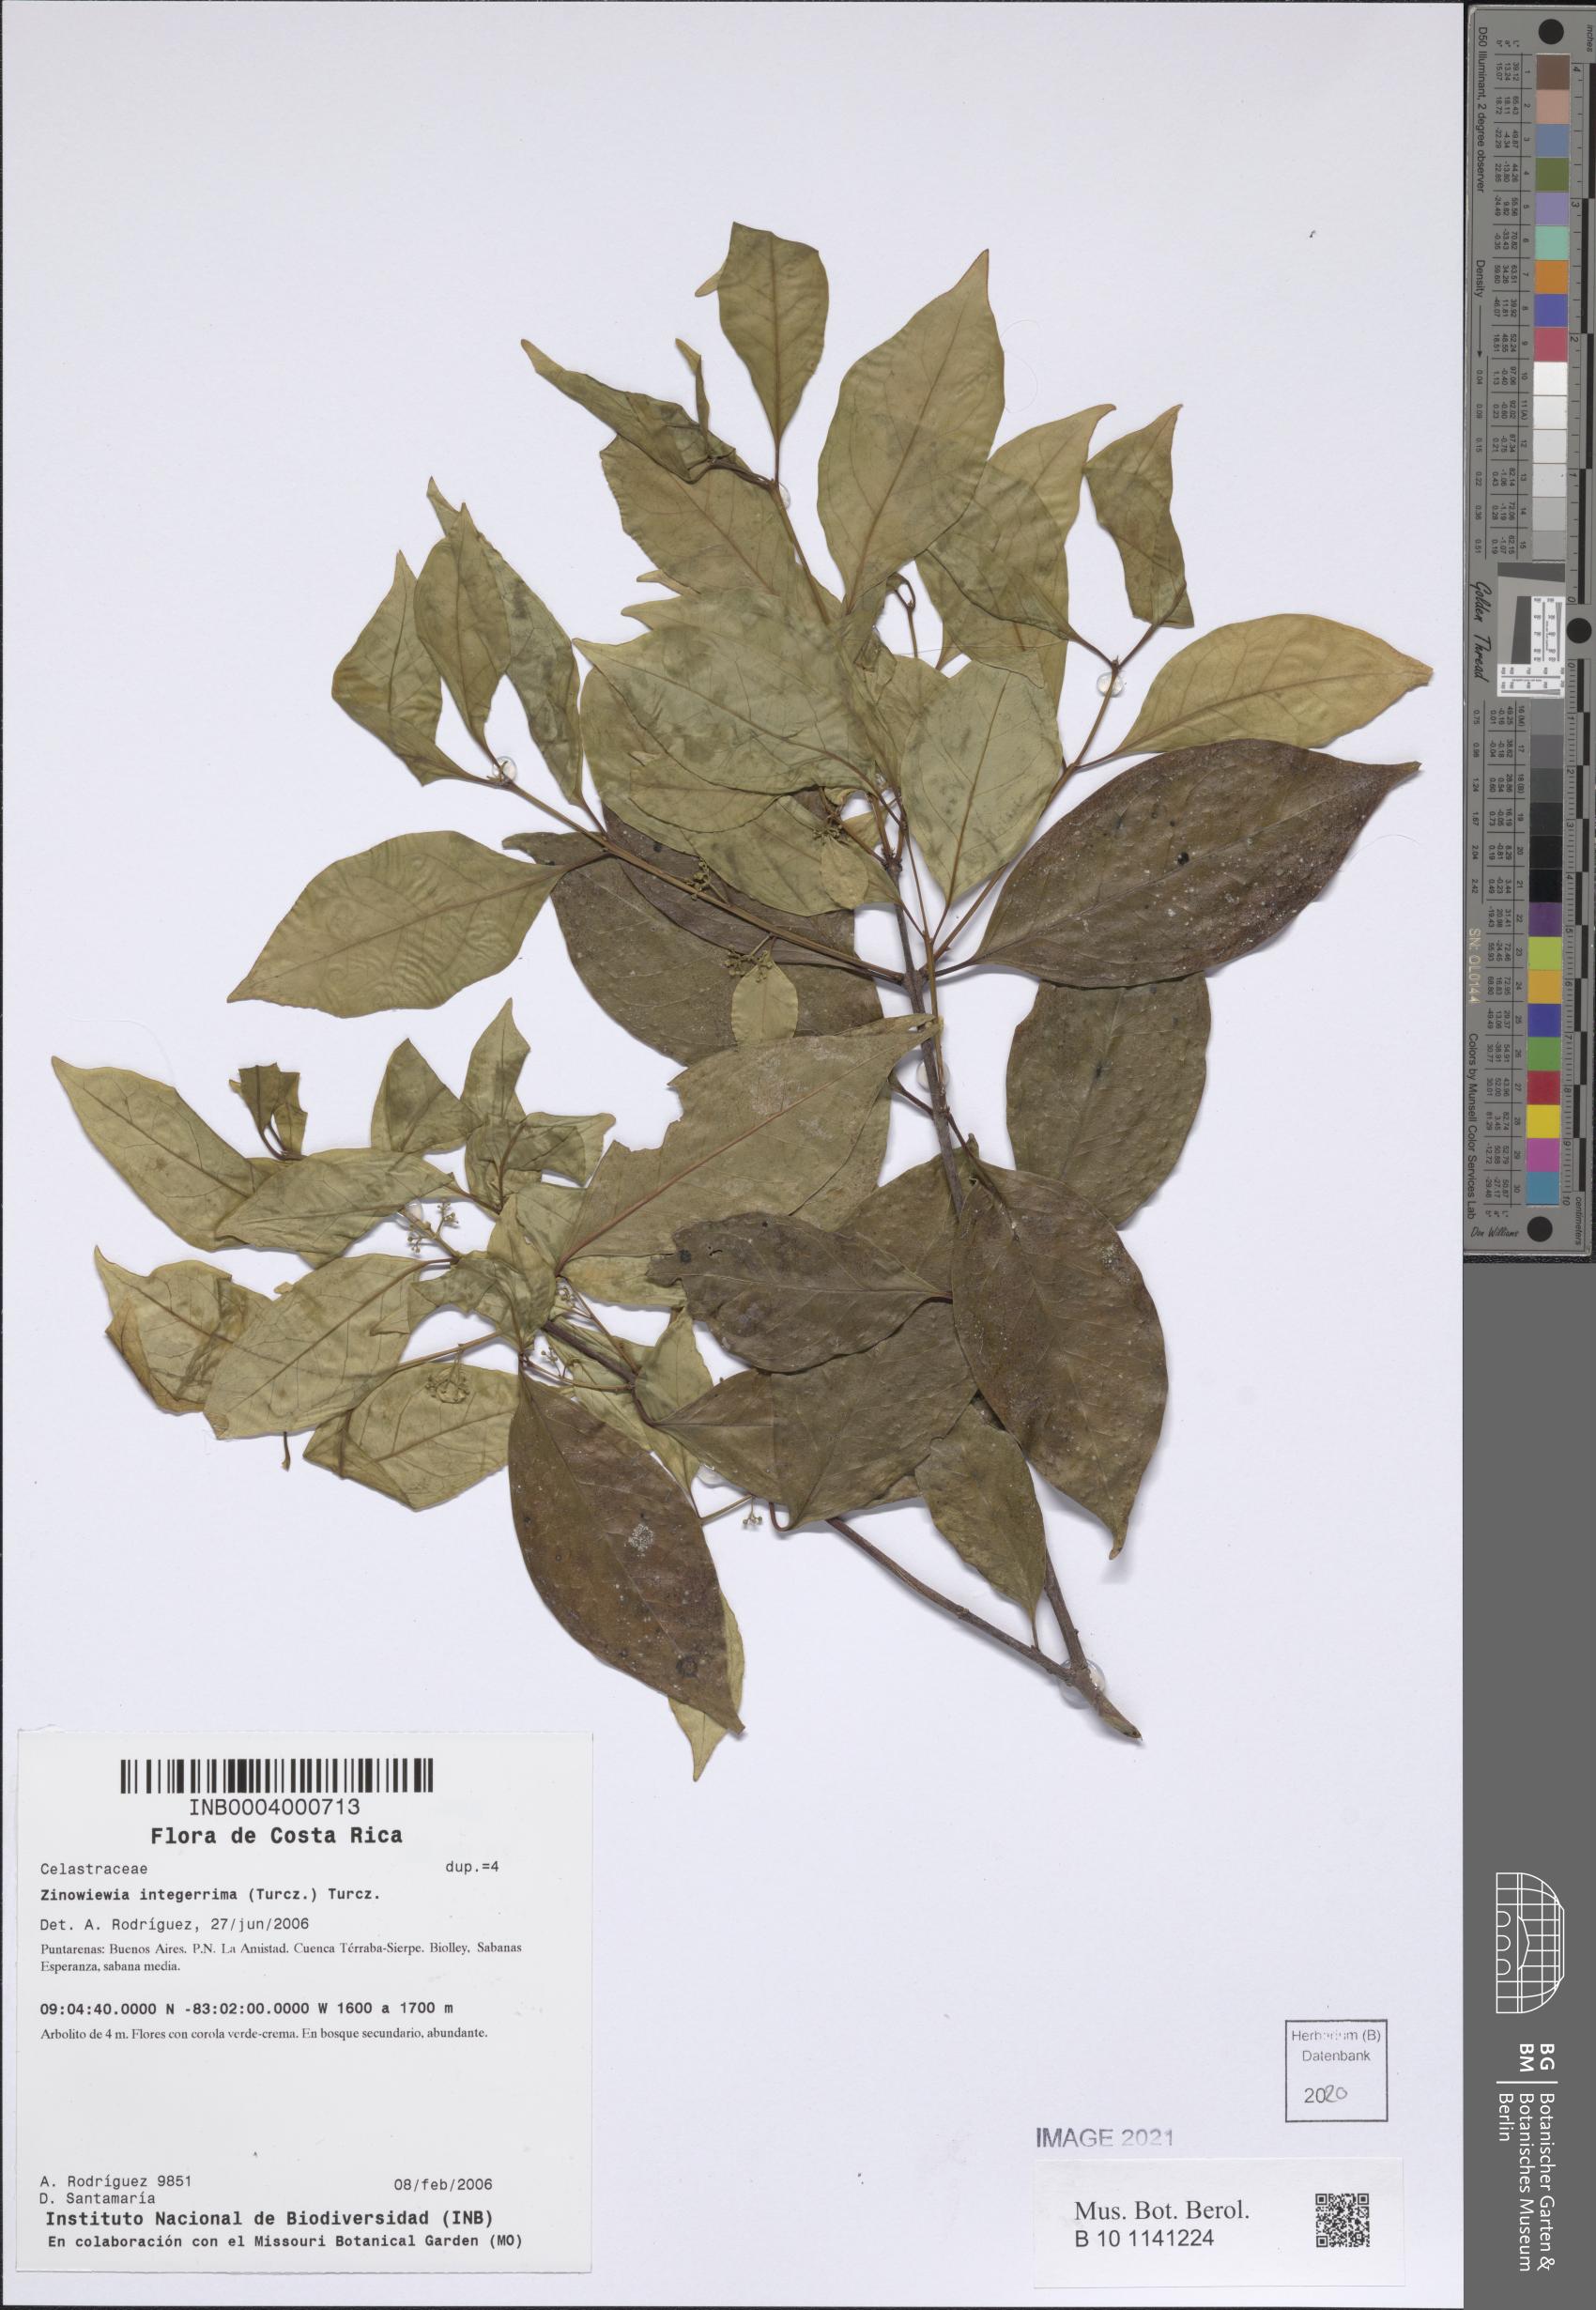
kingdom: Plantae
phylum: Tracheophyta
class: Magnoliopsida
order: Celastrales
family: Celastraceae
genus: Zinowiewia
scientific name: Zinowiewia integerrima
